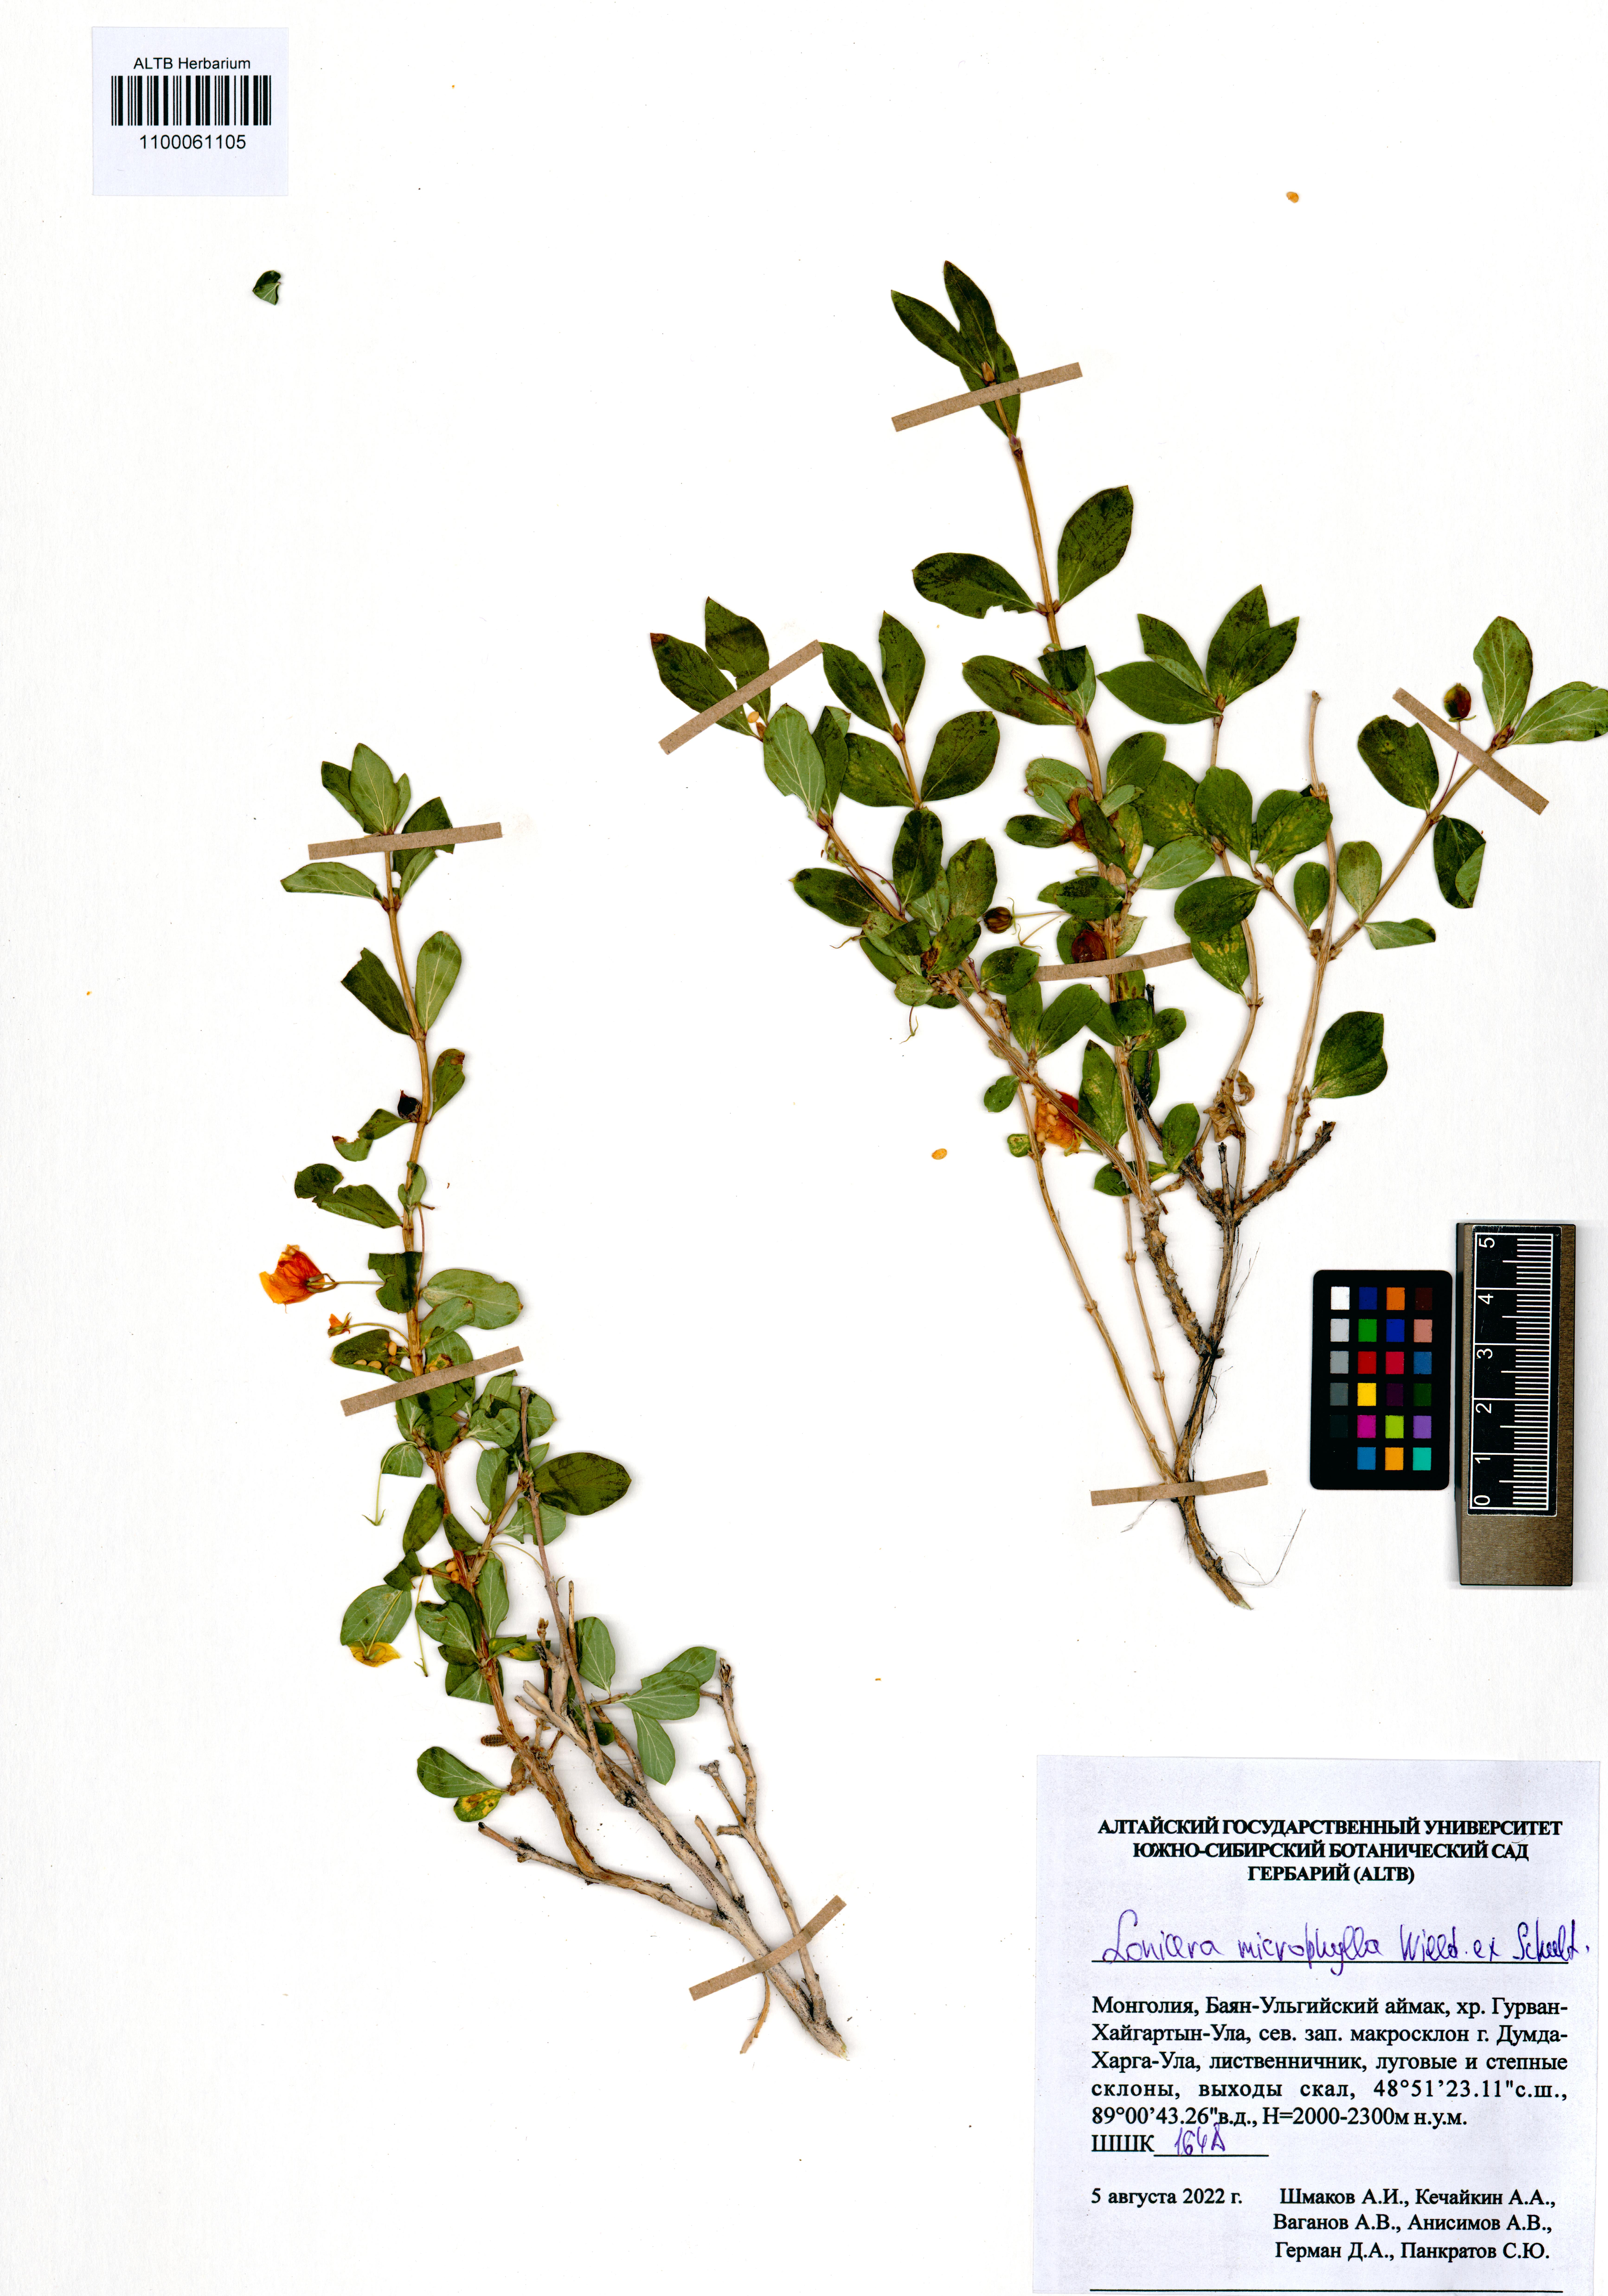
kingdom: Plantae
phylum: Tracheophyta
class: Magnoliopsida
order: Dipsacales
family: Caprifoliaceae
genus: Lonicera
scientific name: Lonicera microphylla
